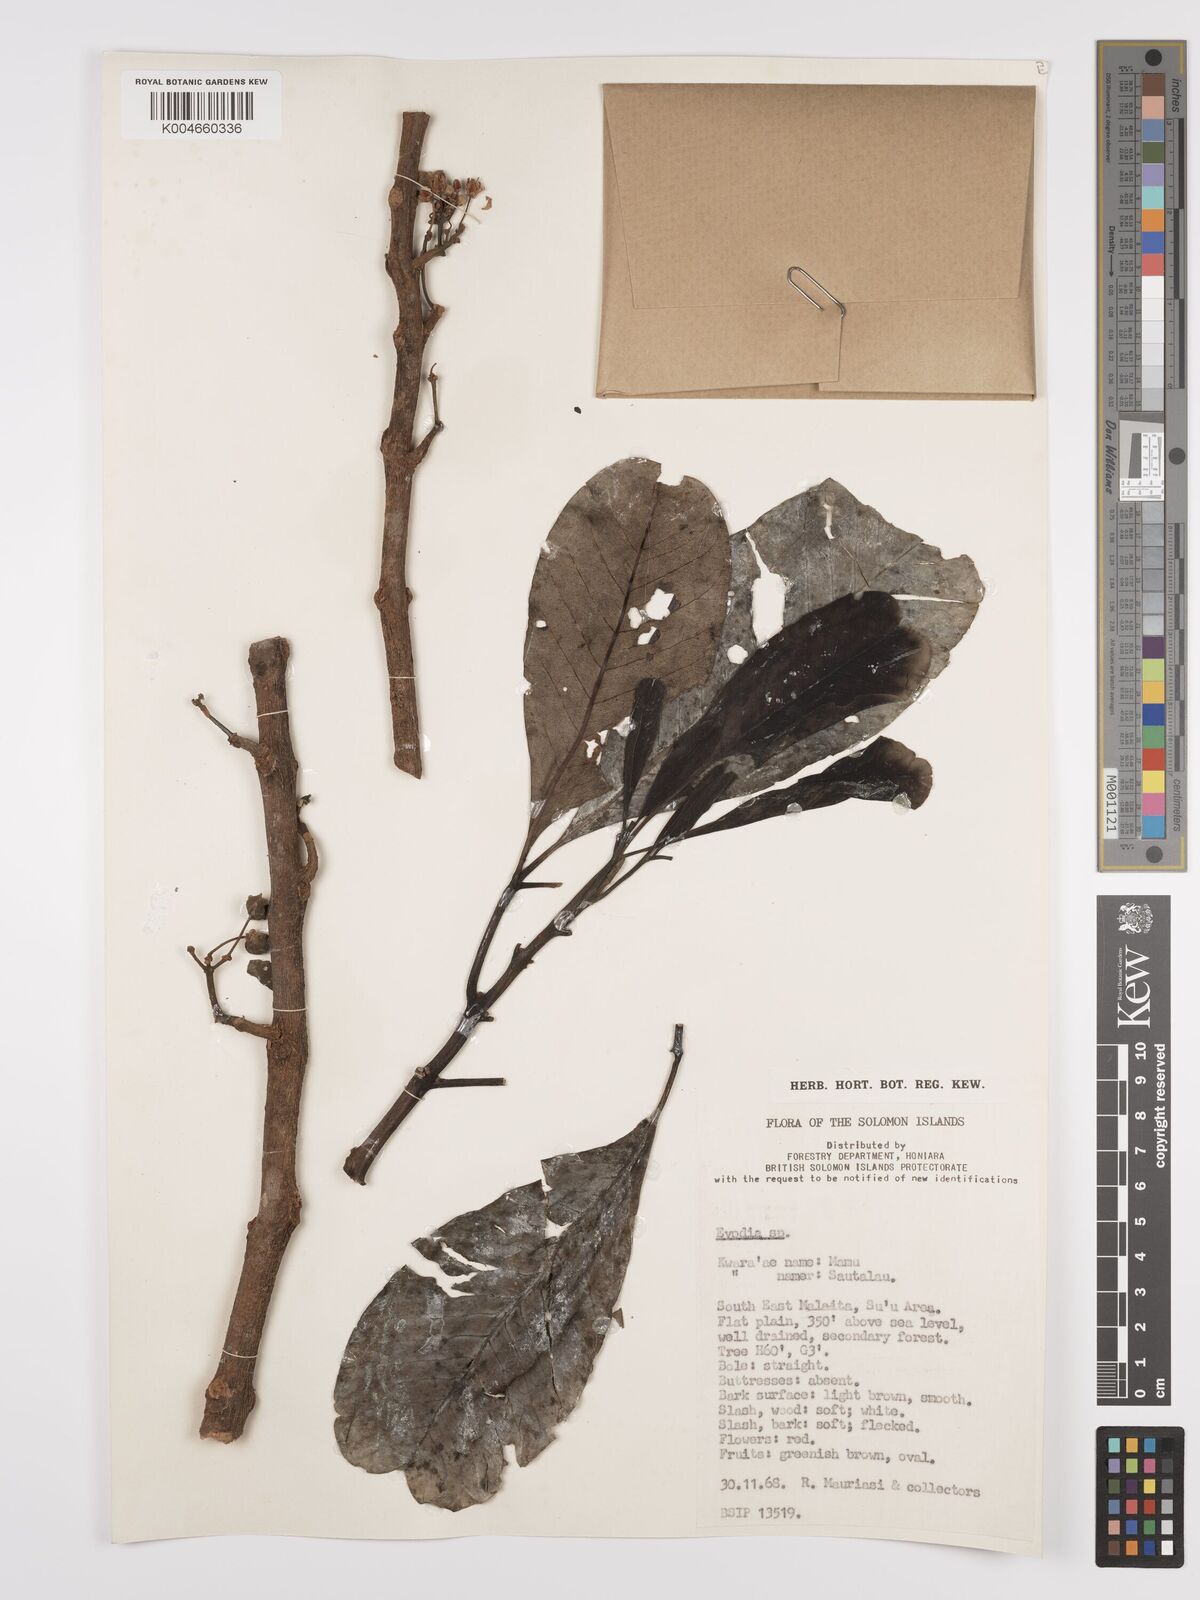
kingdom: Plantae
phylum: Tracheophyta
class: Magnoliopsida
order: Sapindales
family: Rutaceae
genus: Euodia
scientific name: Euodia
